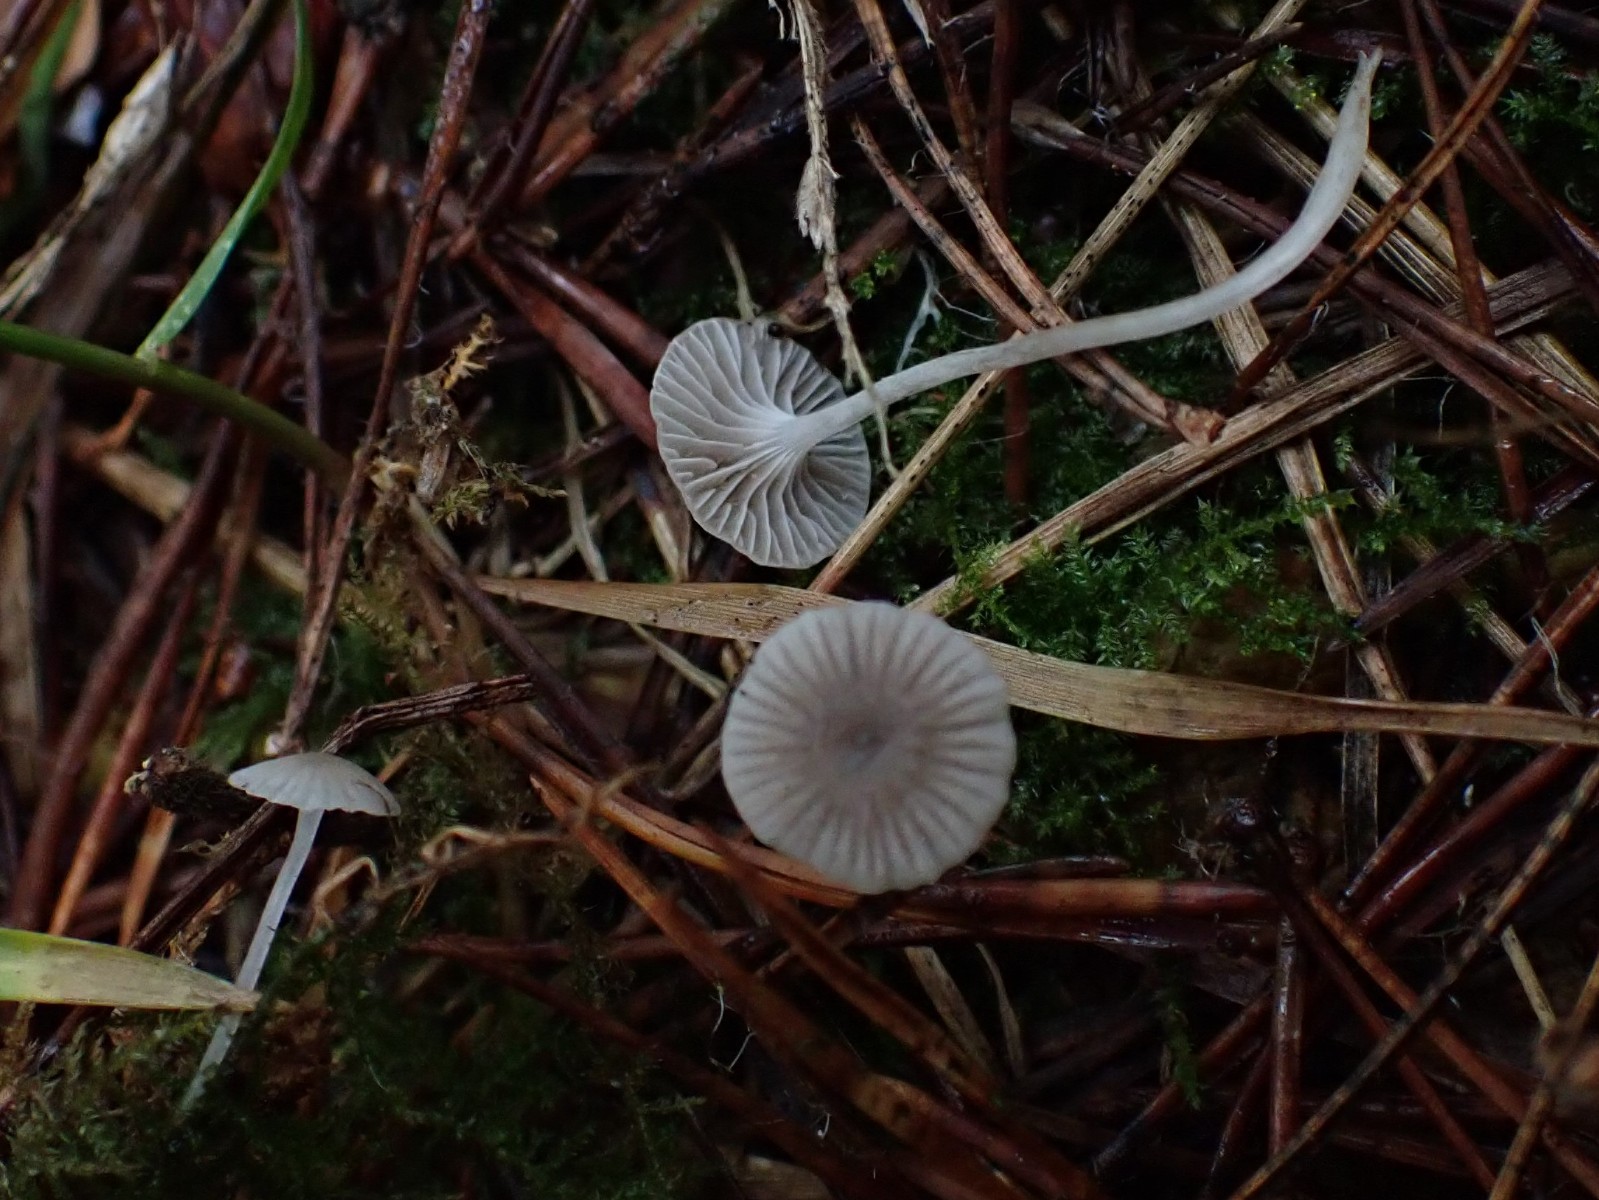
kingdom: Fungi
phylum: Basidiomycota
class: Agaricomycetes
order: Agaricales
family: Mycenaceae
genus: Mycena
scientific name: Mycena cinerella
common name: mel-huesvamp
